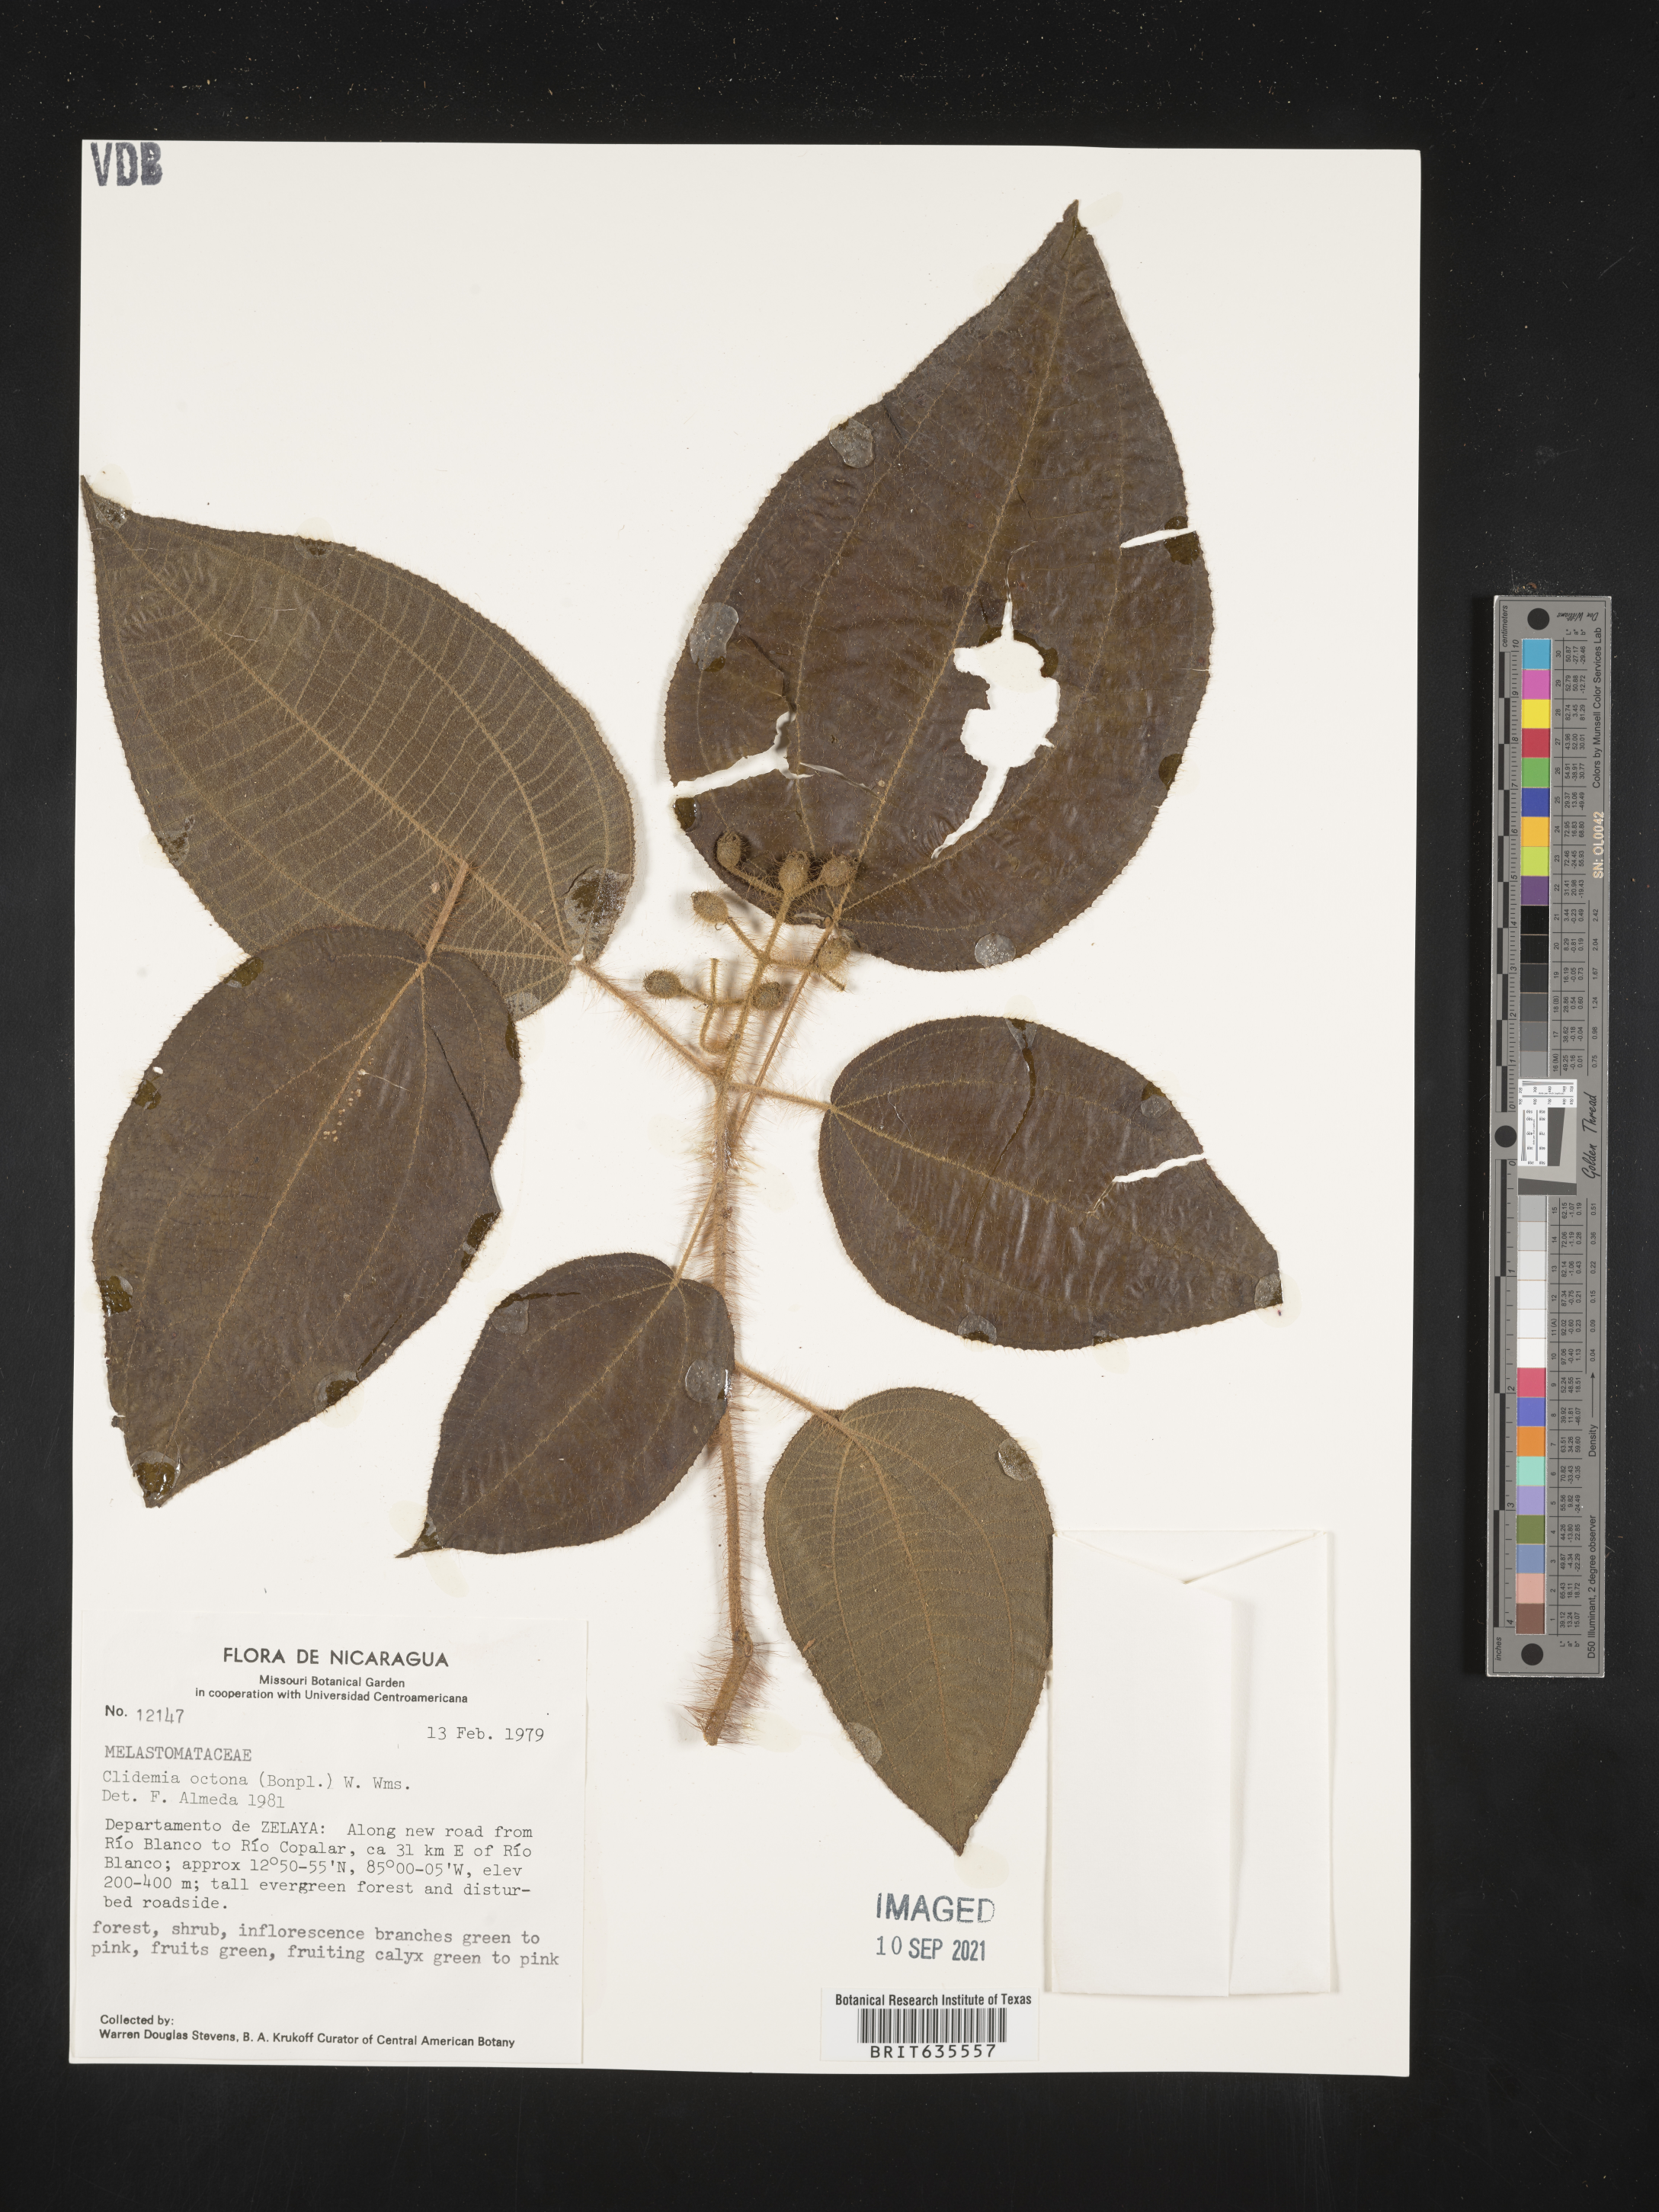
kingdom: Plantae
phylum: Tracheophyta
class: Magnoliopsida
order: Myrtales
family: Melastomataceae
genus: Miconia
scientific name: Miconia
